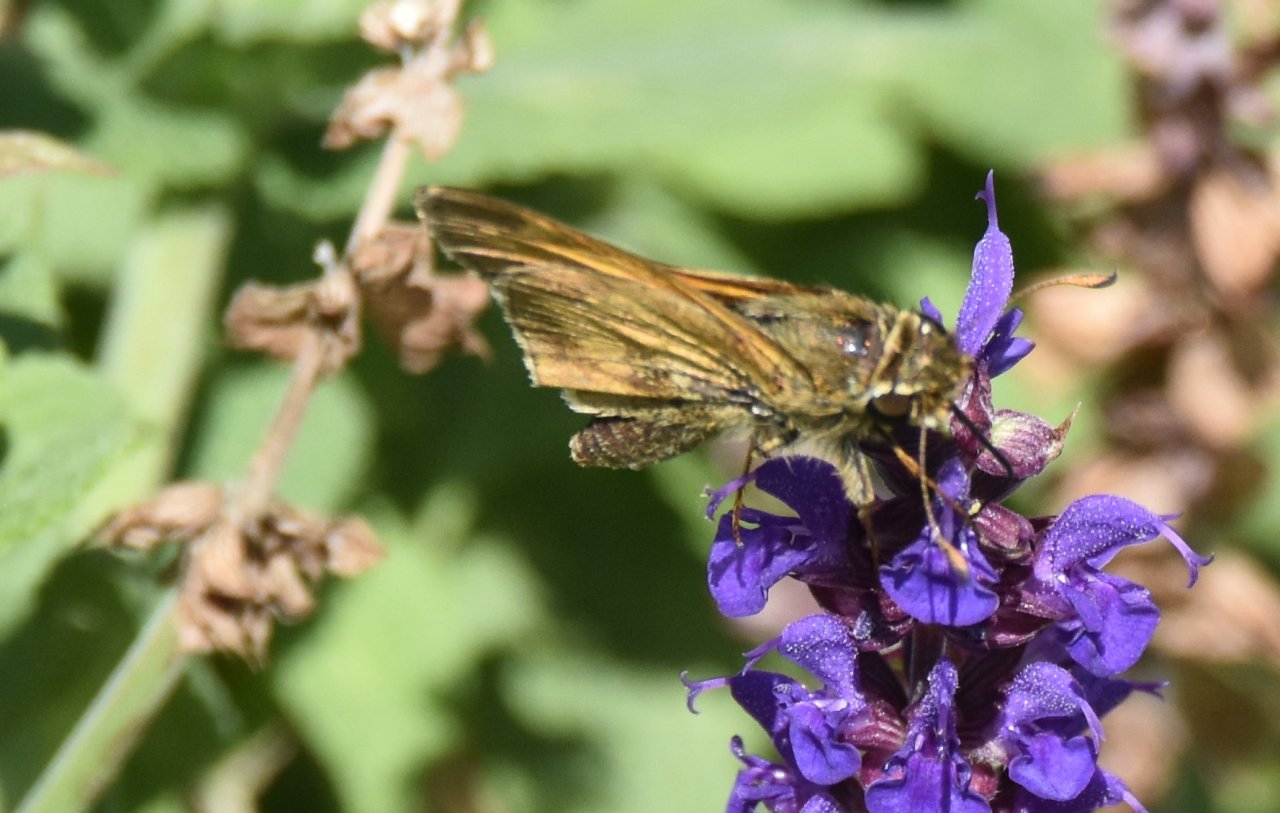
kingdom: Animalia
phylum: Arthropoda
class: Insecta
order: Lepidoptera
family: Hesperiidae
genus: Atalopedes
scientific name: Atalopedes campestris
